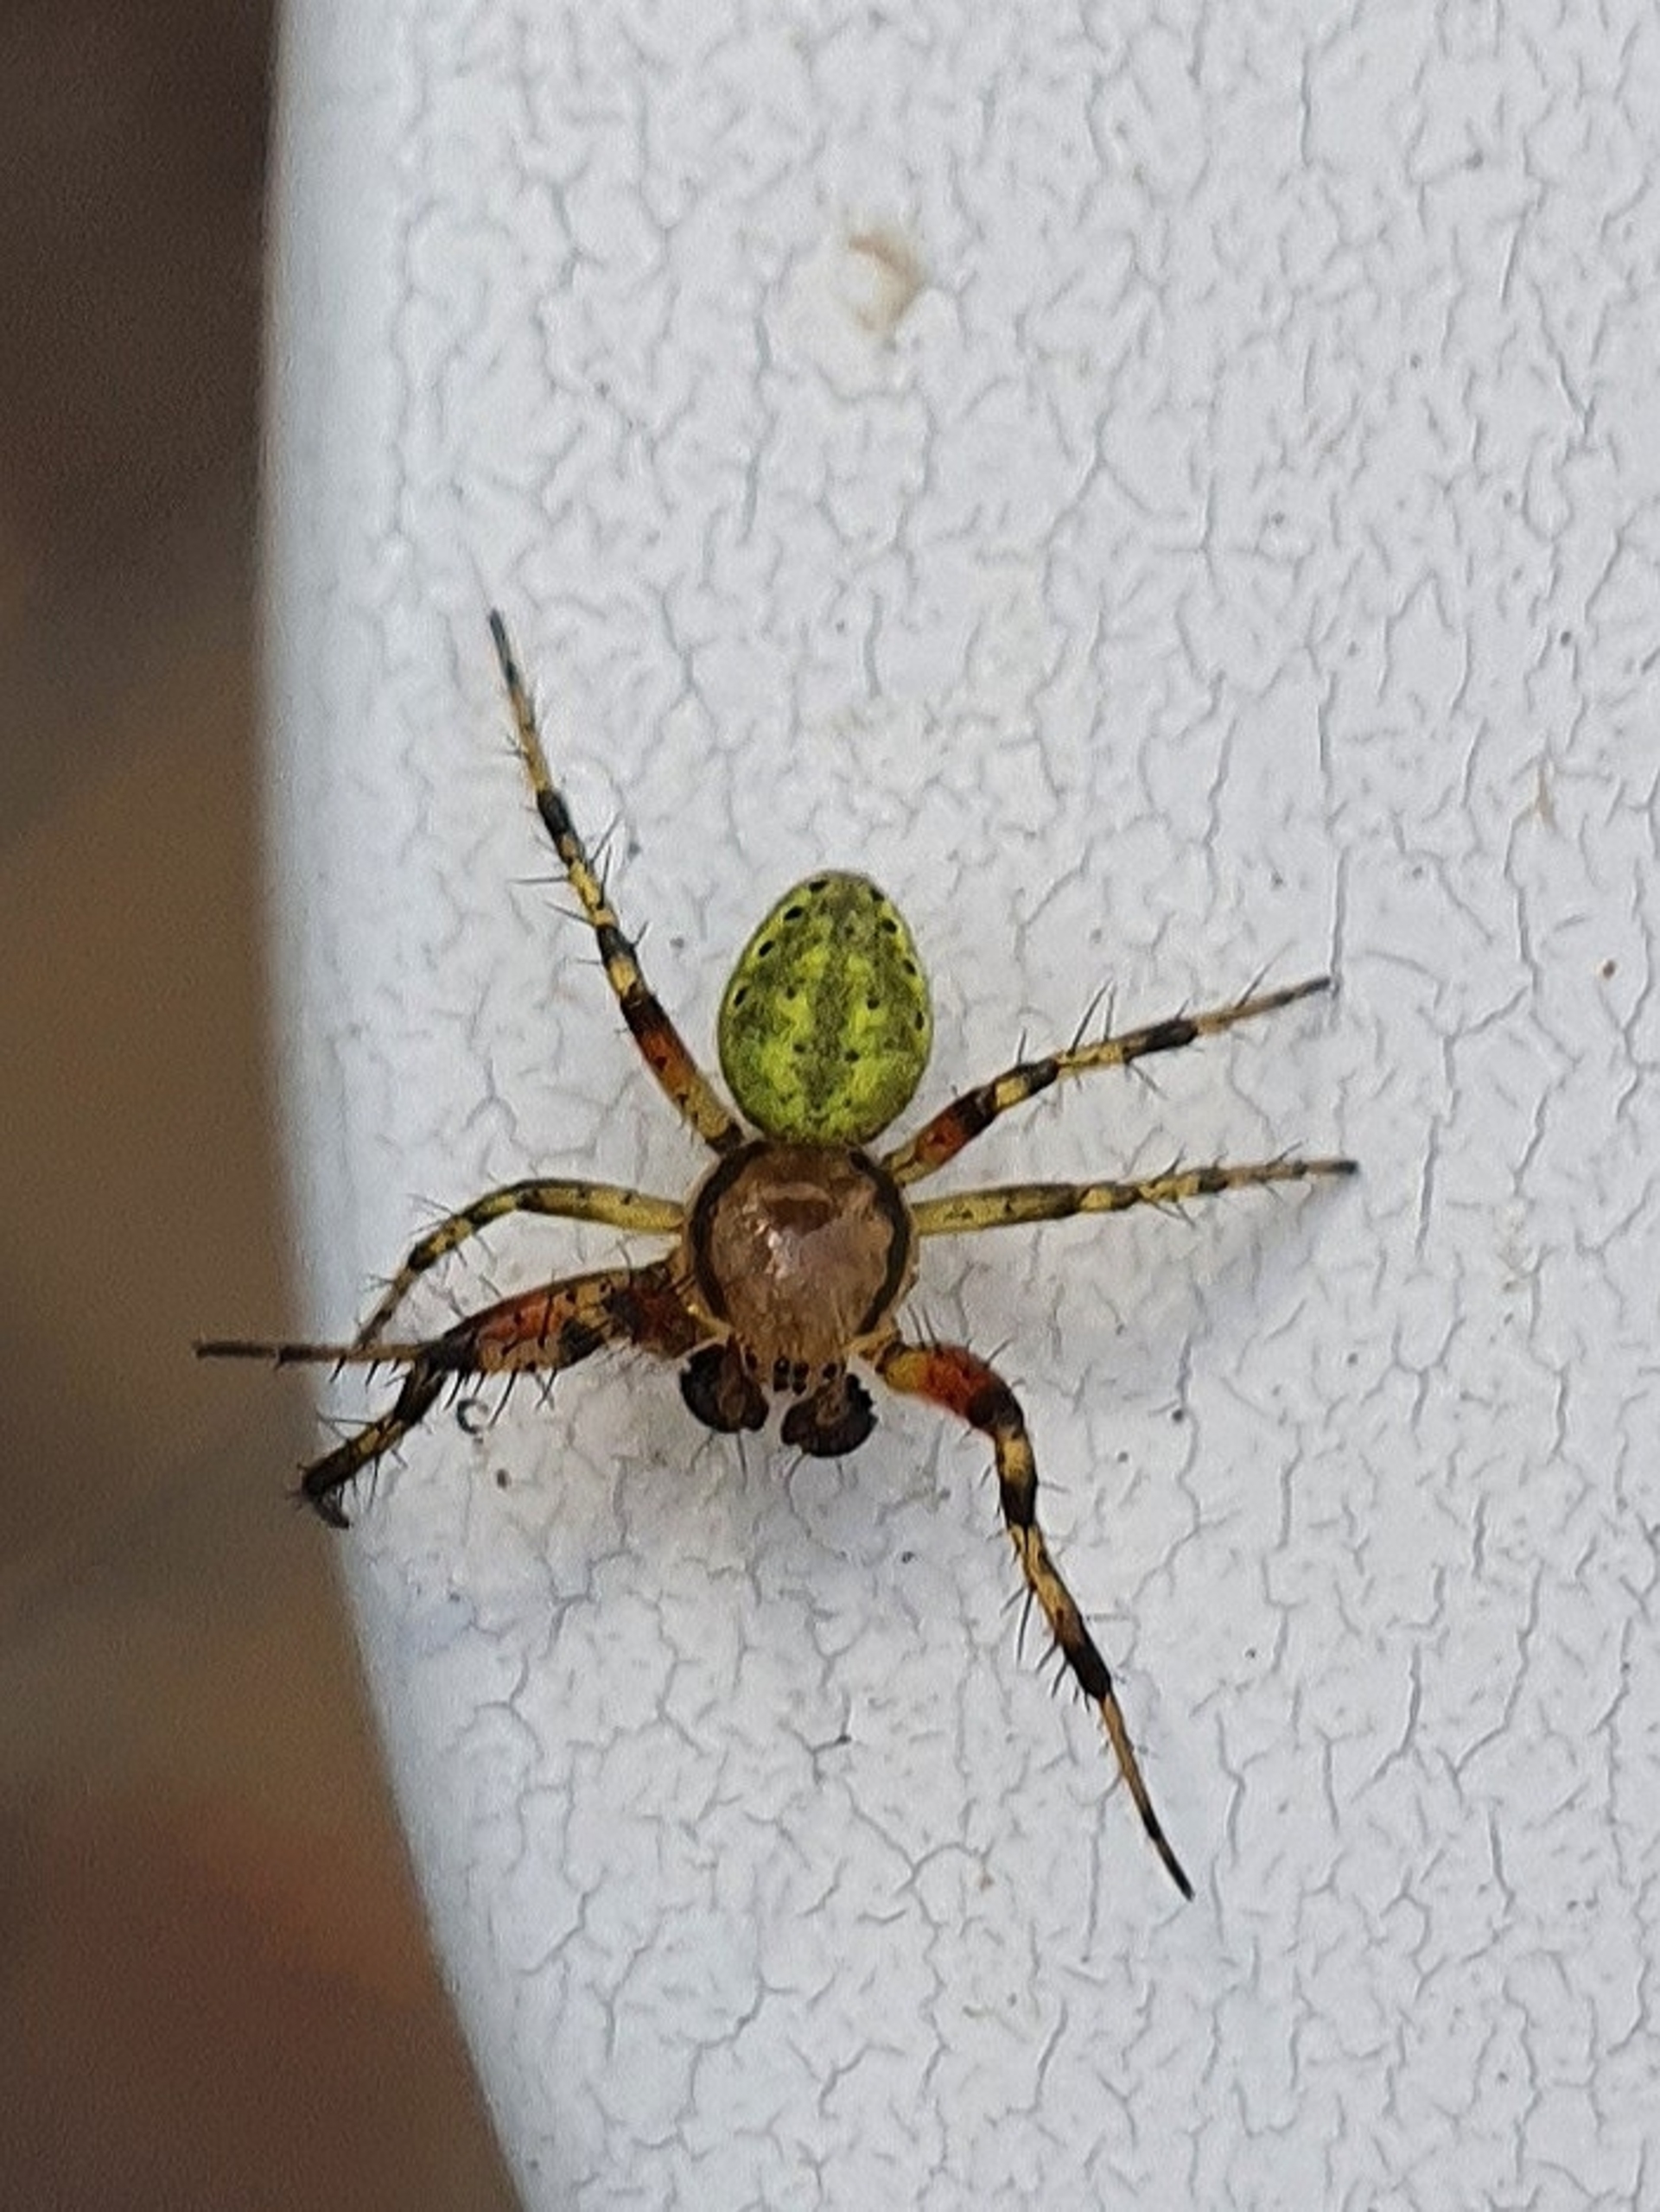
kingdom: Animalia
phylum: Arthropoda
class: Arachnida
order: Araneae
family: Araneidae
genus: Araniella
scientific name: Araniella
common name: Agurkeedderkopslægten
